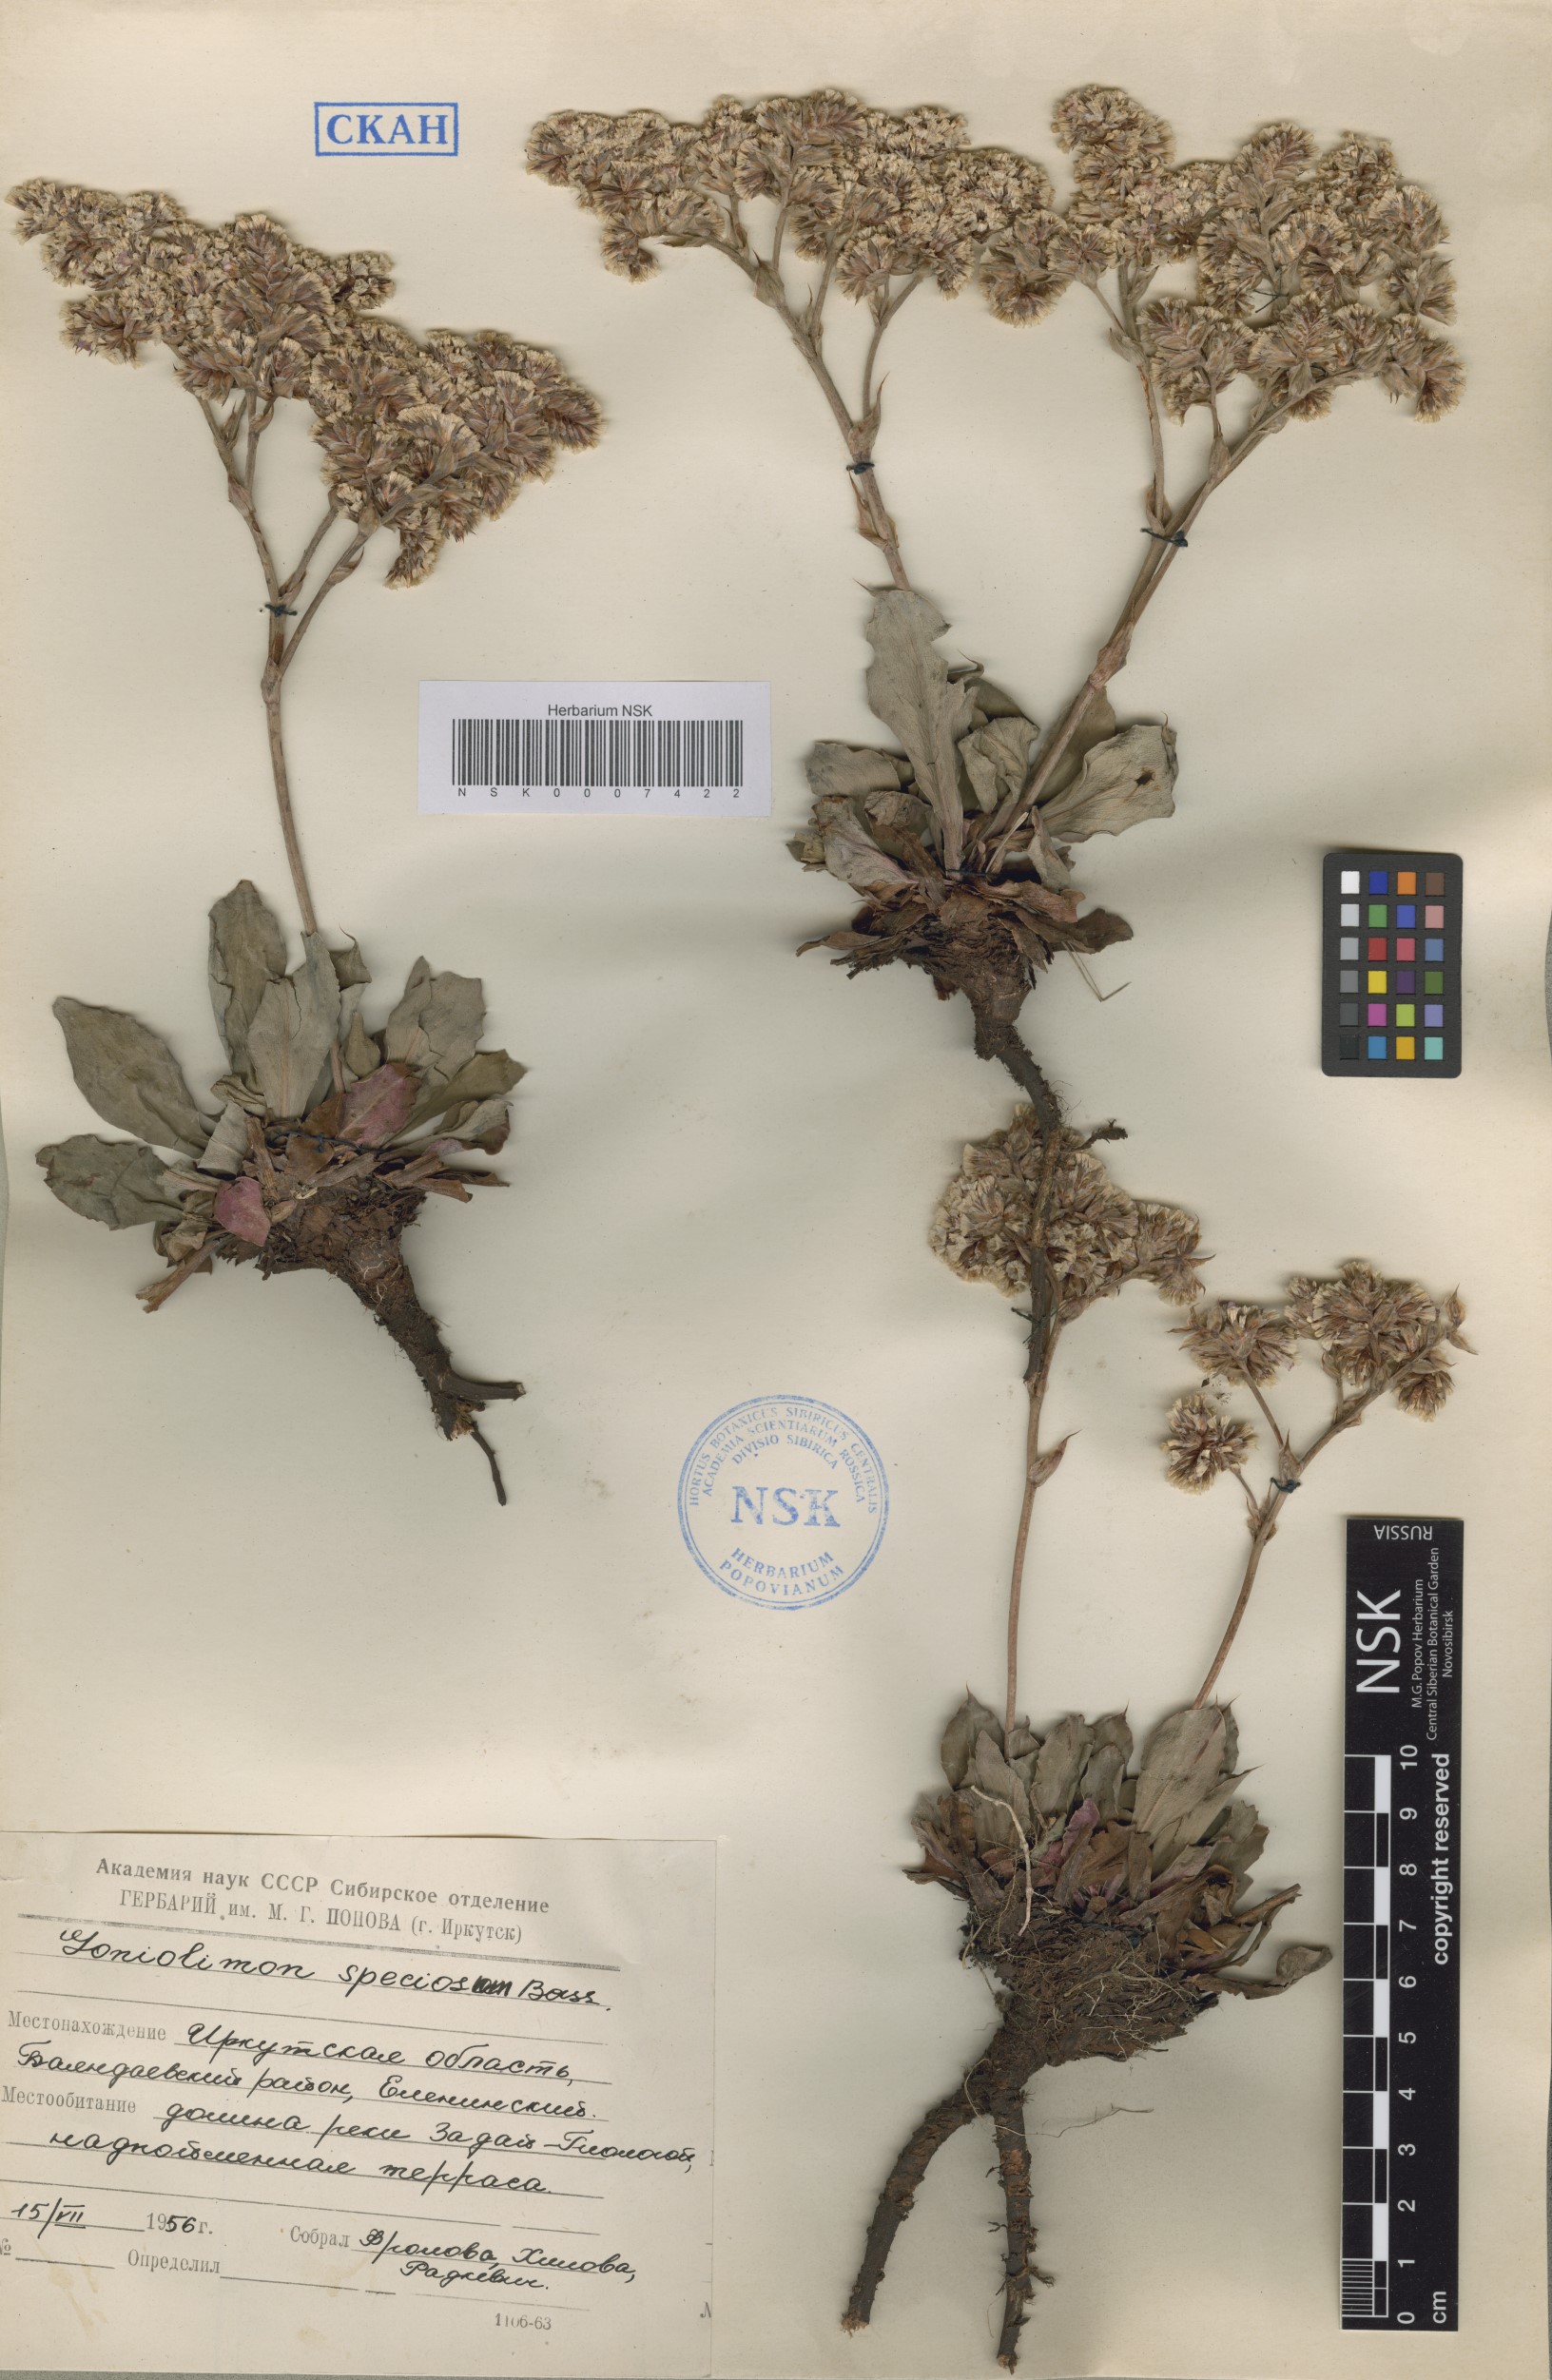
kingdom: Plantae
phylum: Tracheophyta
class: Magnoliopsida
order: Caryophyllales
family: Plumbaginaceae
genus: Goniolimon
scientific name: Goniolimon speciosum
